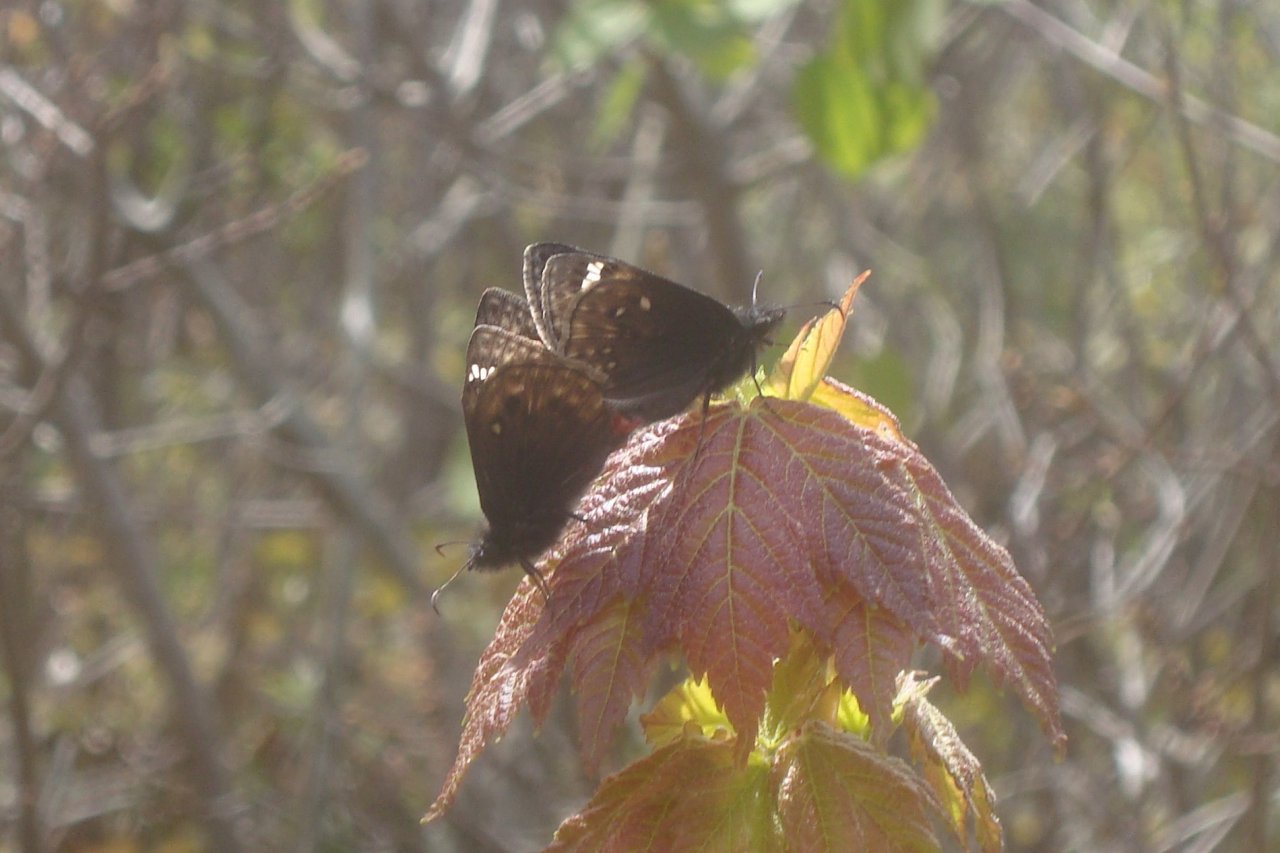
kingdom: Animalia
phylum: Arthropoda
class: Insecta
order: Lepidoptera
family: Hesperiidae
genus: Gesta
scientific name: Gesta
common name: Juvenal's Duskywing
